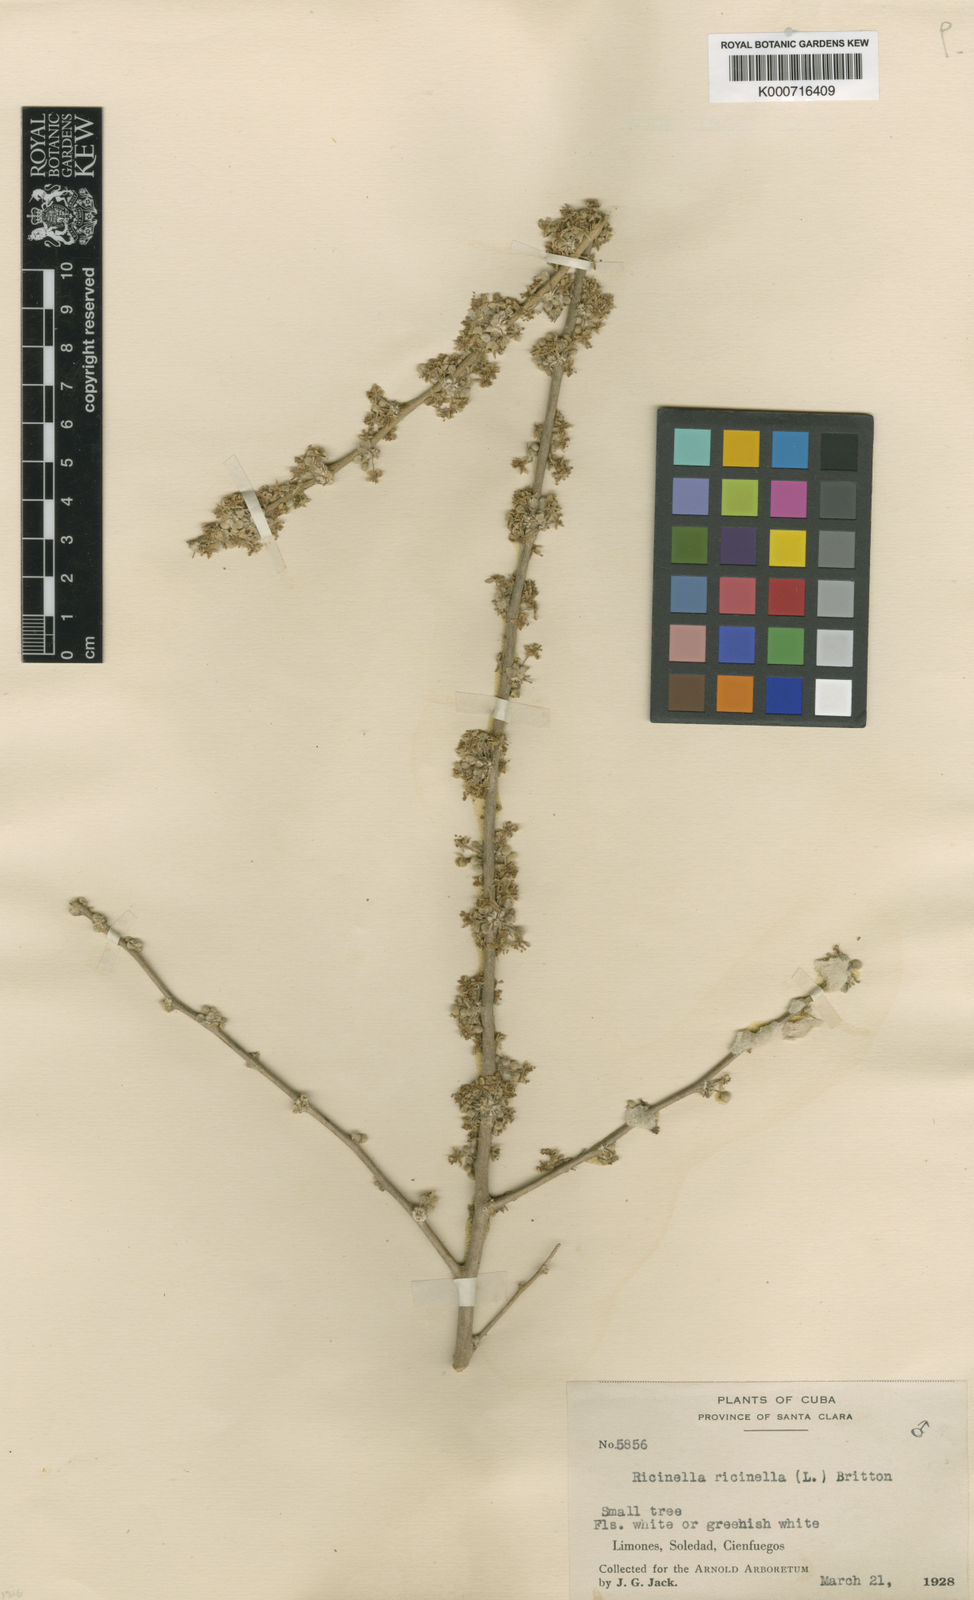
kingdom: Plantae
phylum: Tracheophyta
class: Magnoliopsida
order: Malpighiales
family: Euphorbiaceae
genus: Adelia
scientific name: Adelia ricinella
